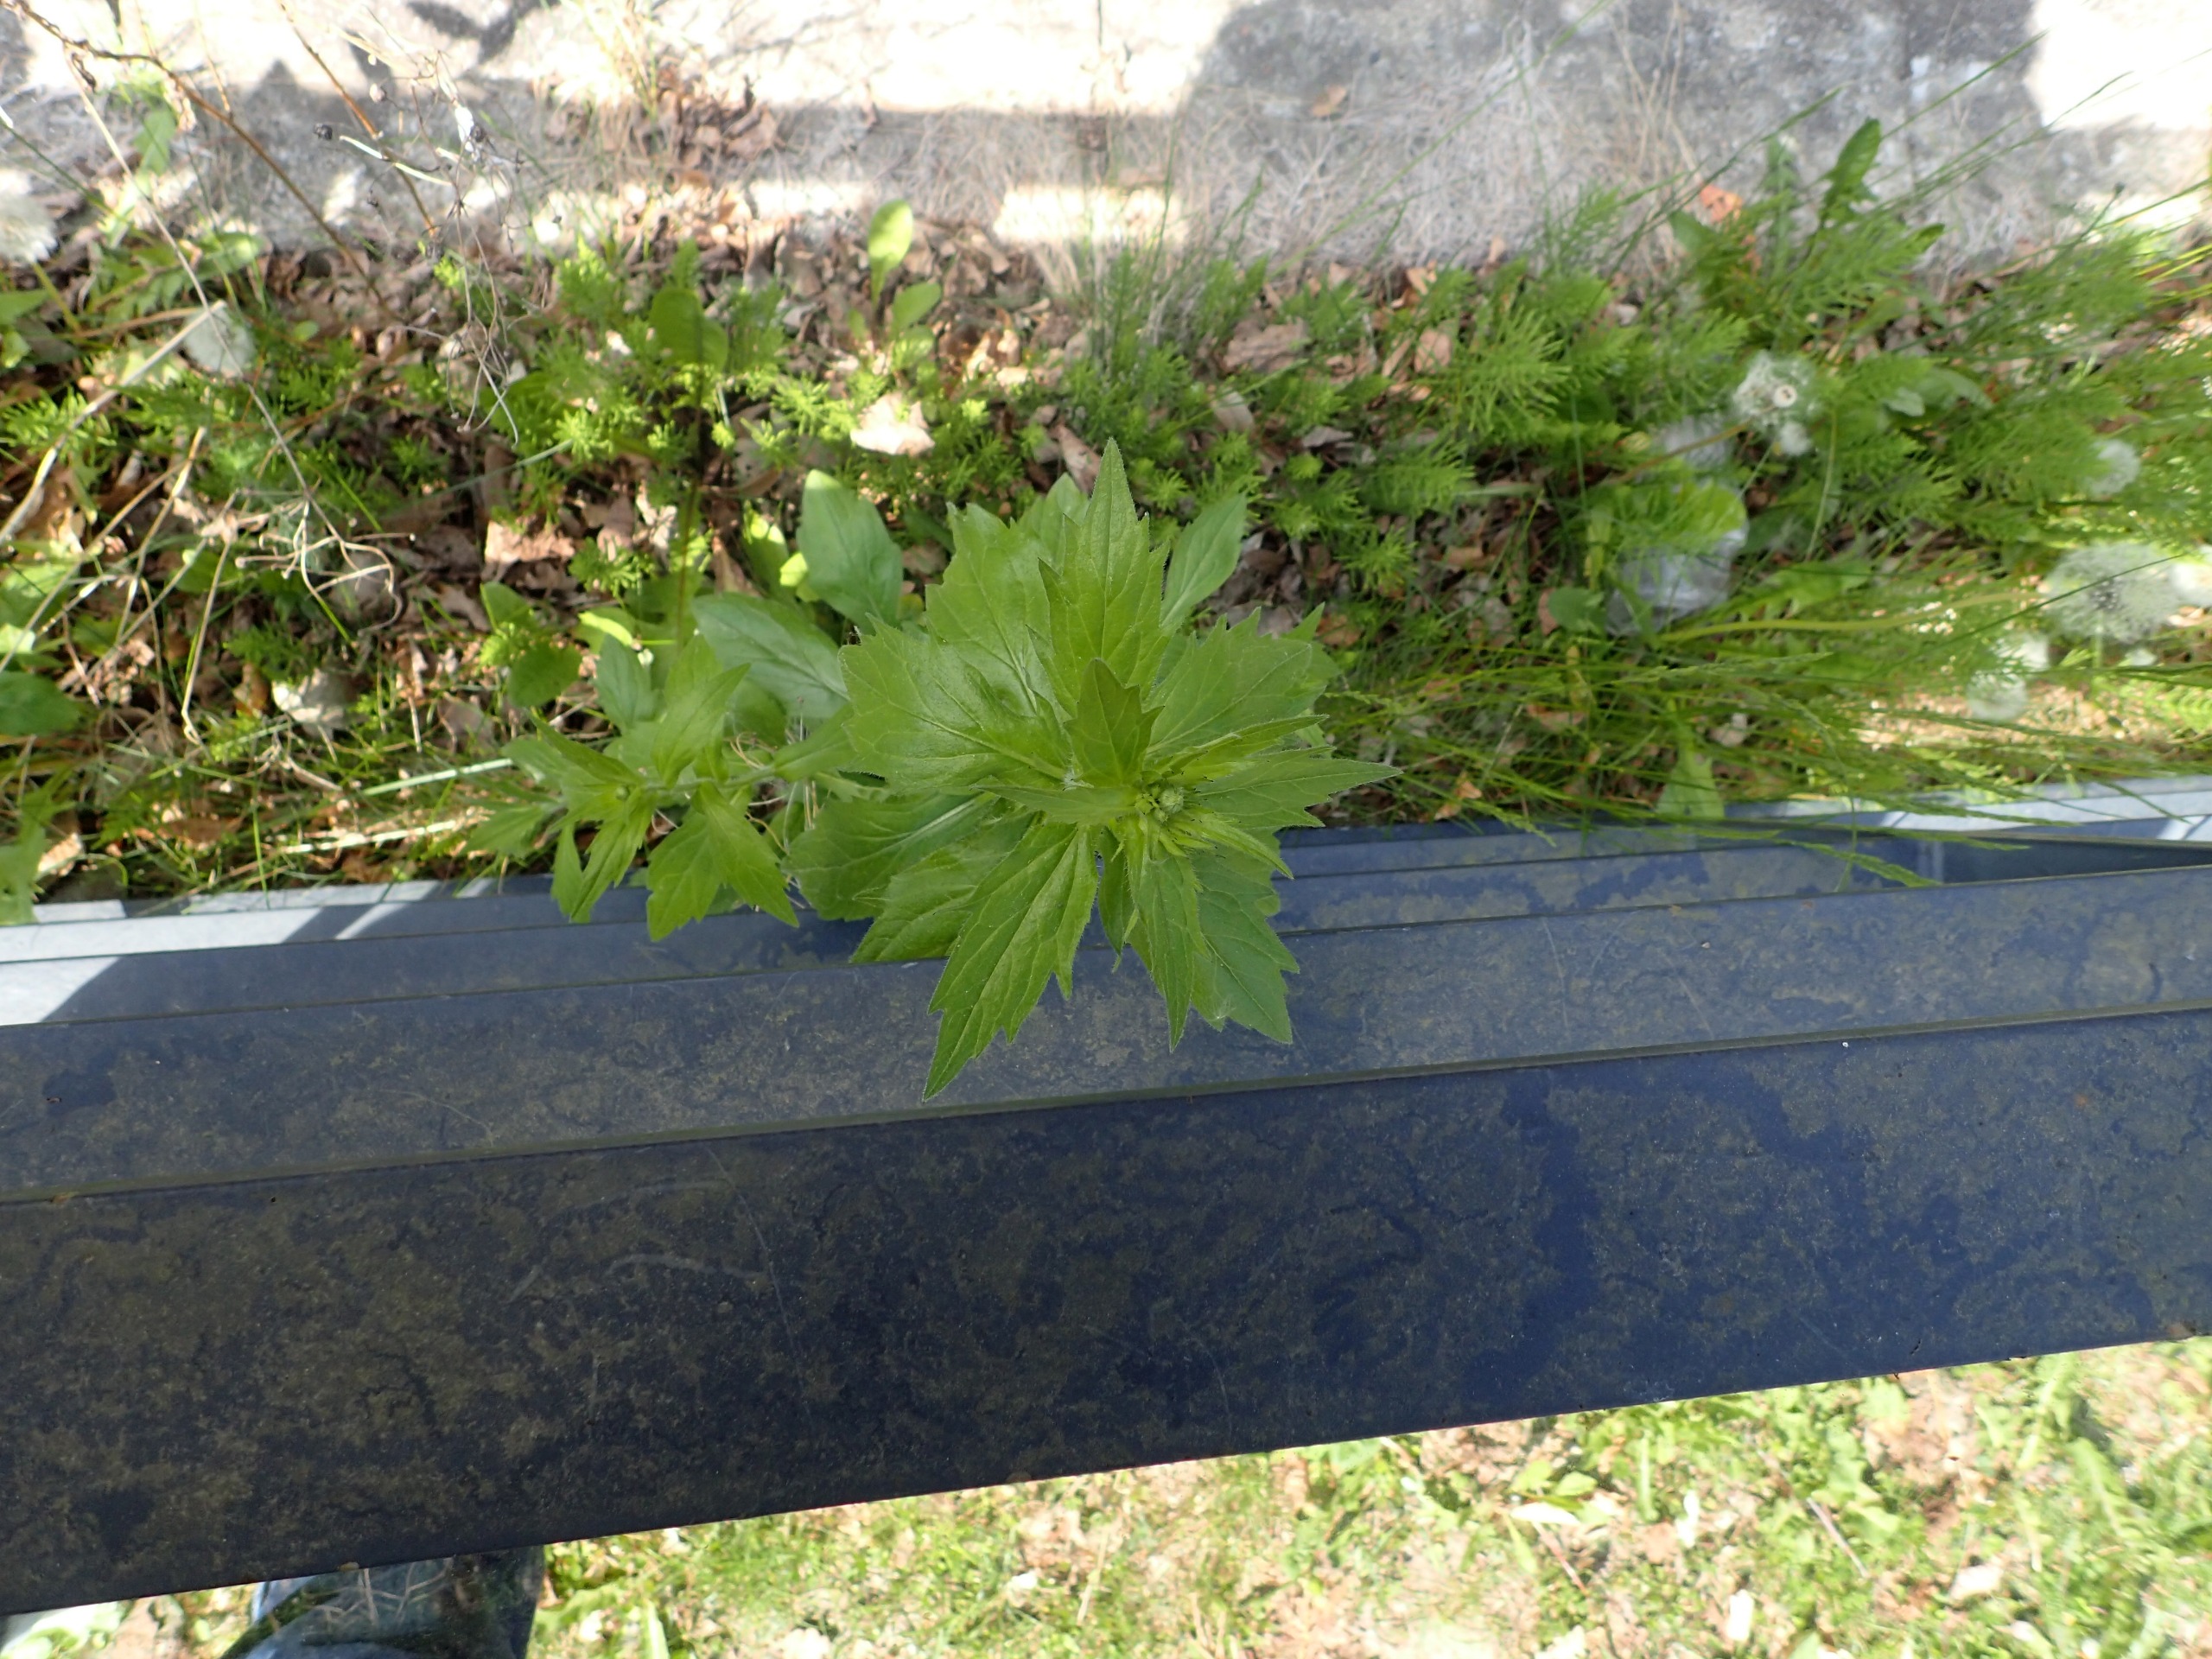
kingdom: Plantae
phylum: Tracheophyta
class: Magnoliopsida
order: Caryophyllales
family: Amaranthaceae
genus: Oxybasis
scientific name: Oxybasis rubra
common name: Rød gåsefod
